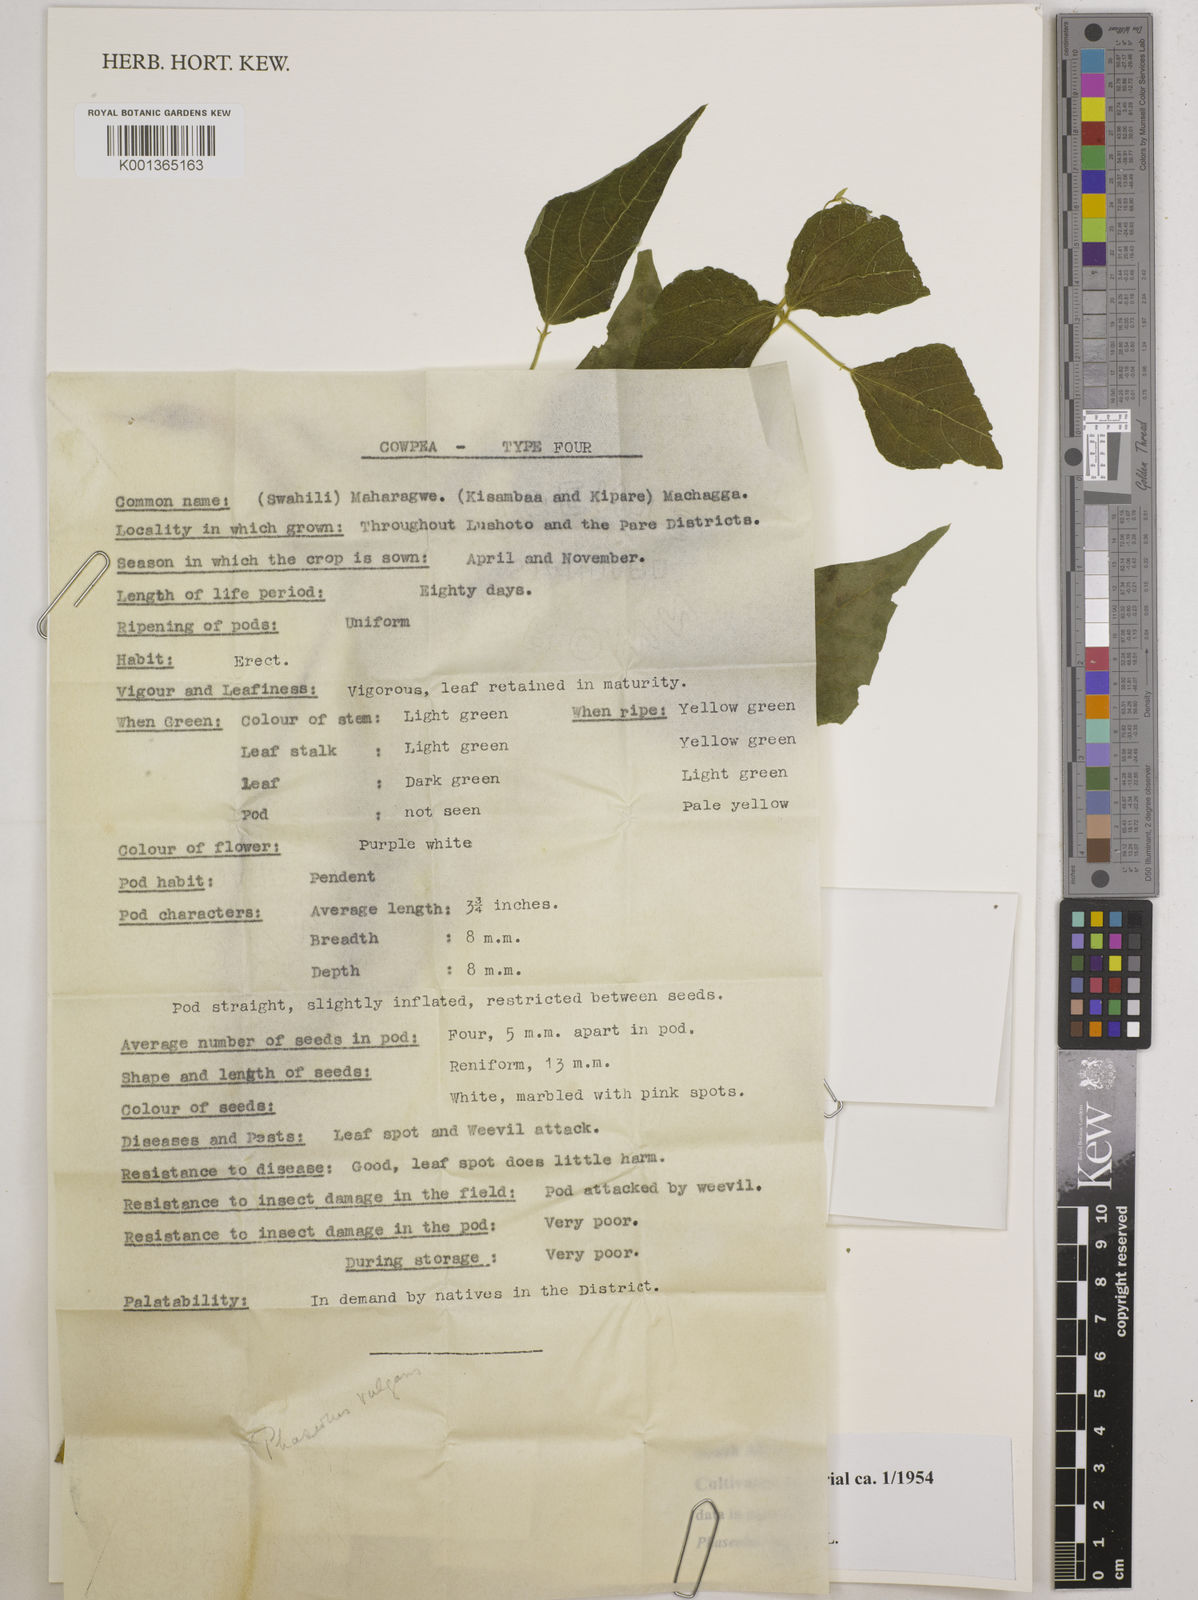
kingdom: Plantae
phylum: Tracheophyta
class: Magnoliopsida
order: Fabales
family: Fabaceae
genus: Phaseolus
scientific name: Phaseolus vulgaris
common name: Bean
